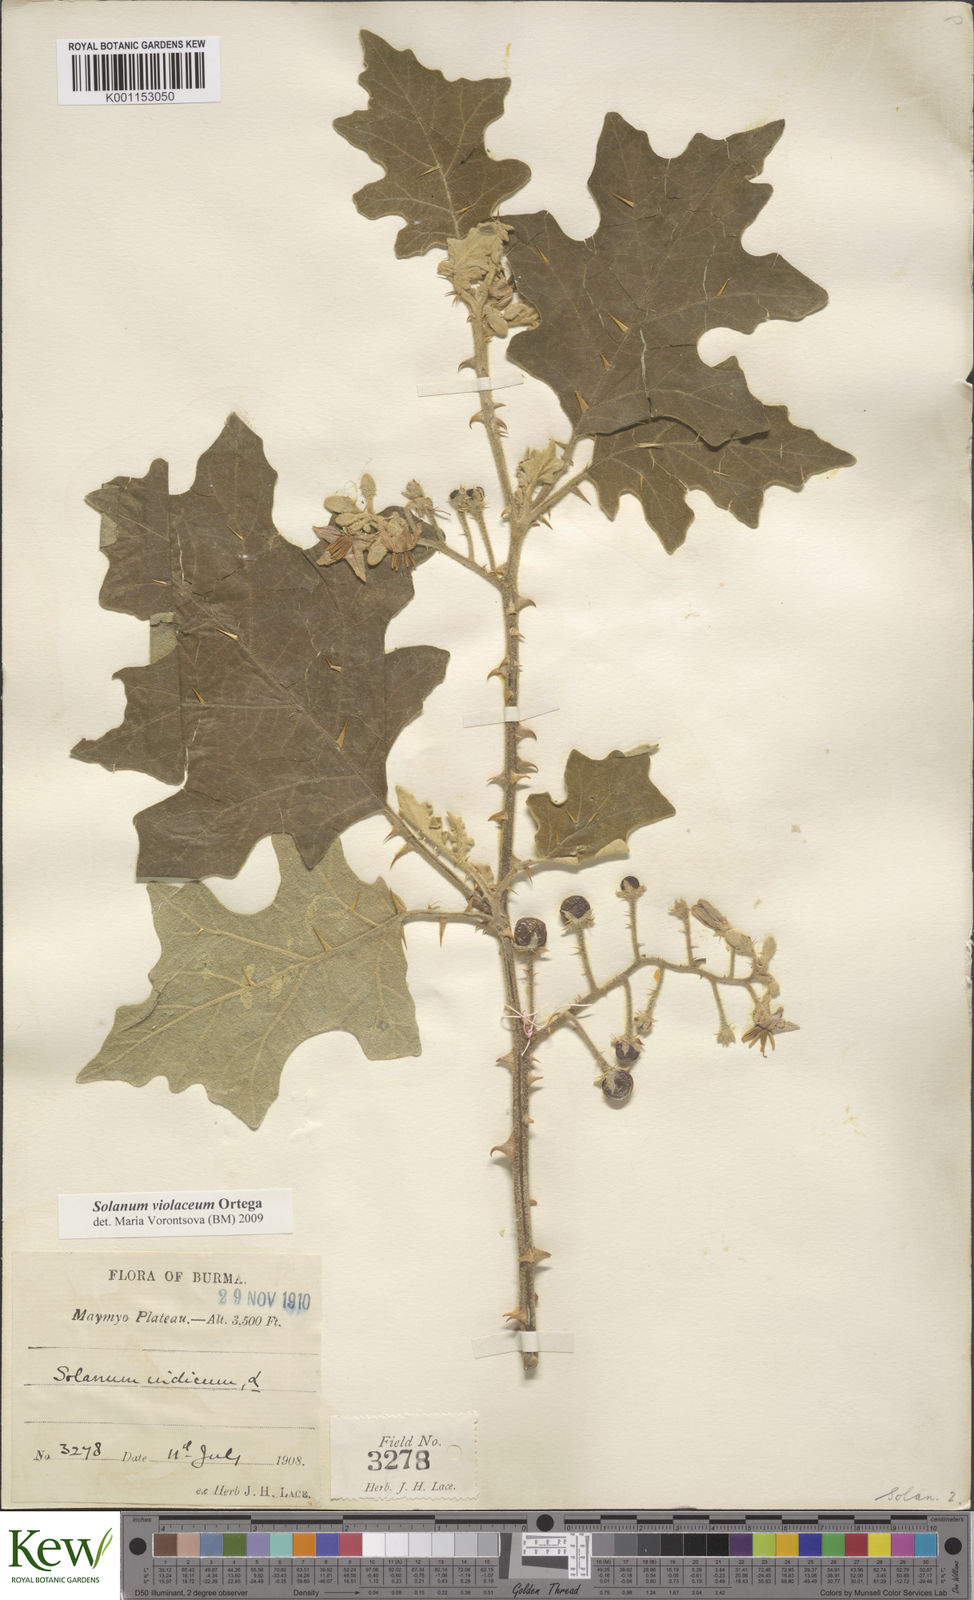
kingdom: Plantae
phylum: Tracheophyta
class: Magnoliopsida
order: Solanales
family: Solanaceae
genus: Solanum
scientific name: Solanum violaceum
